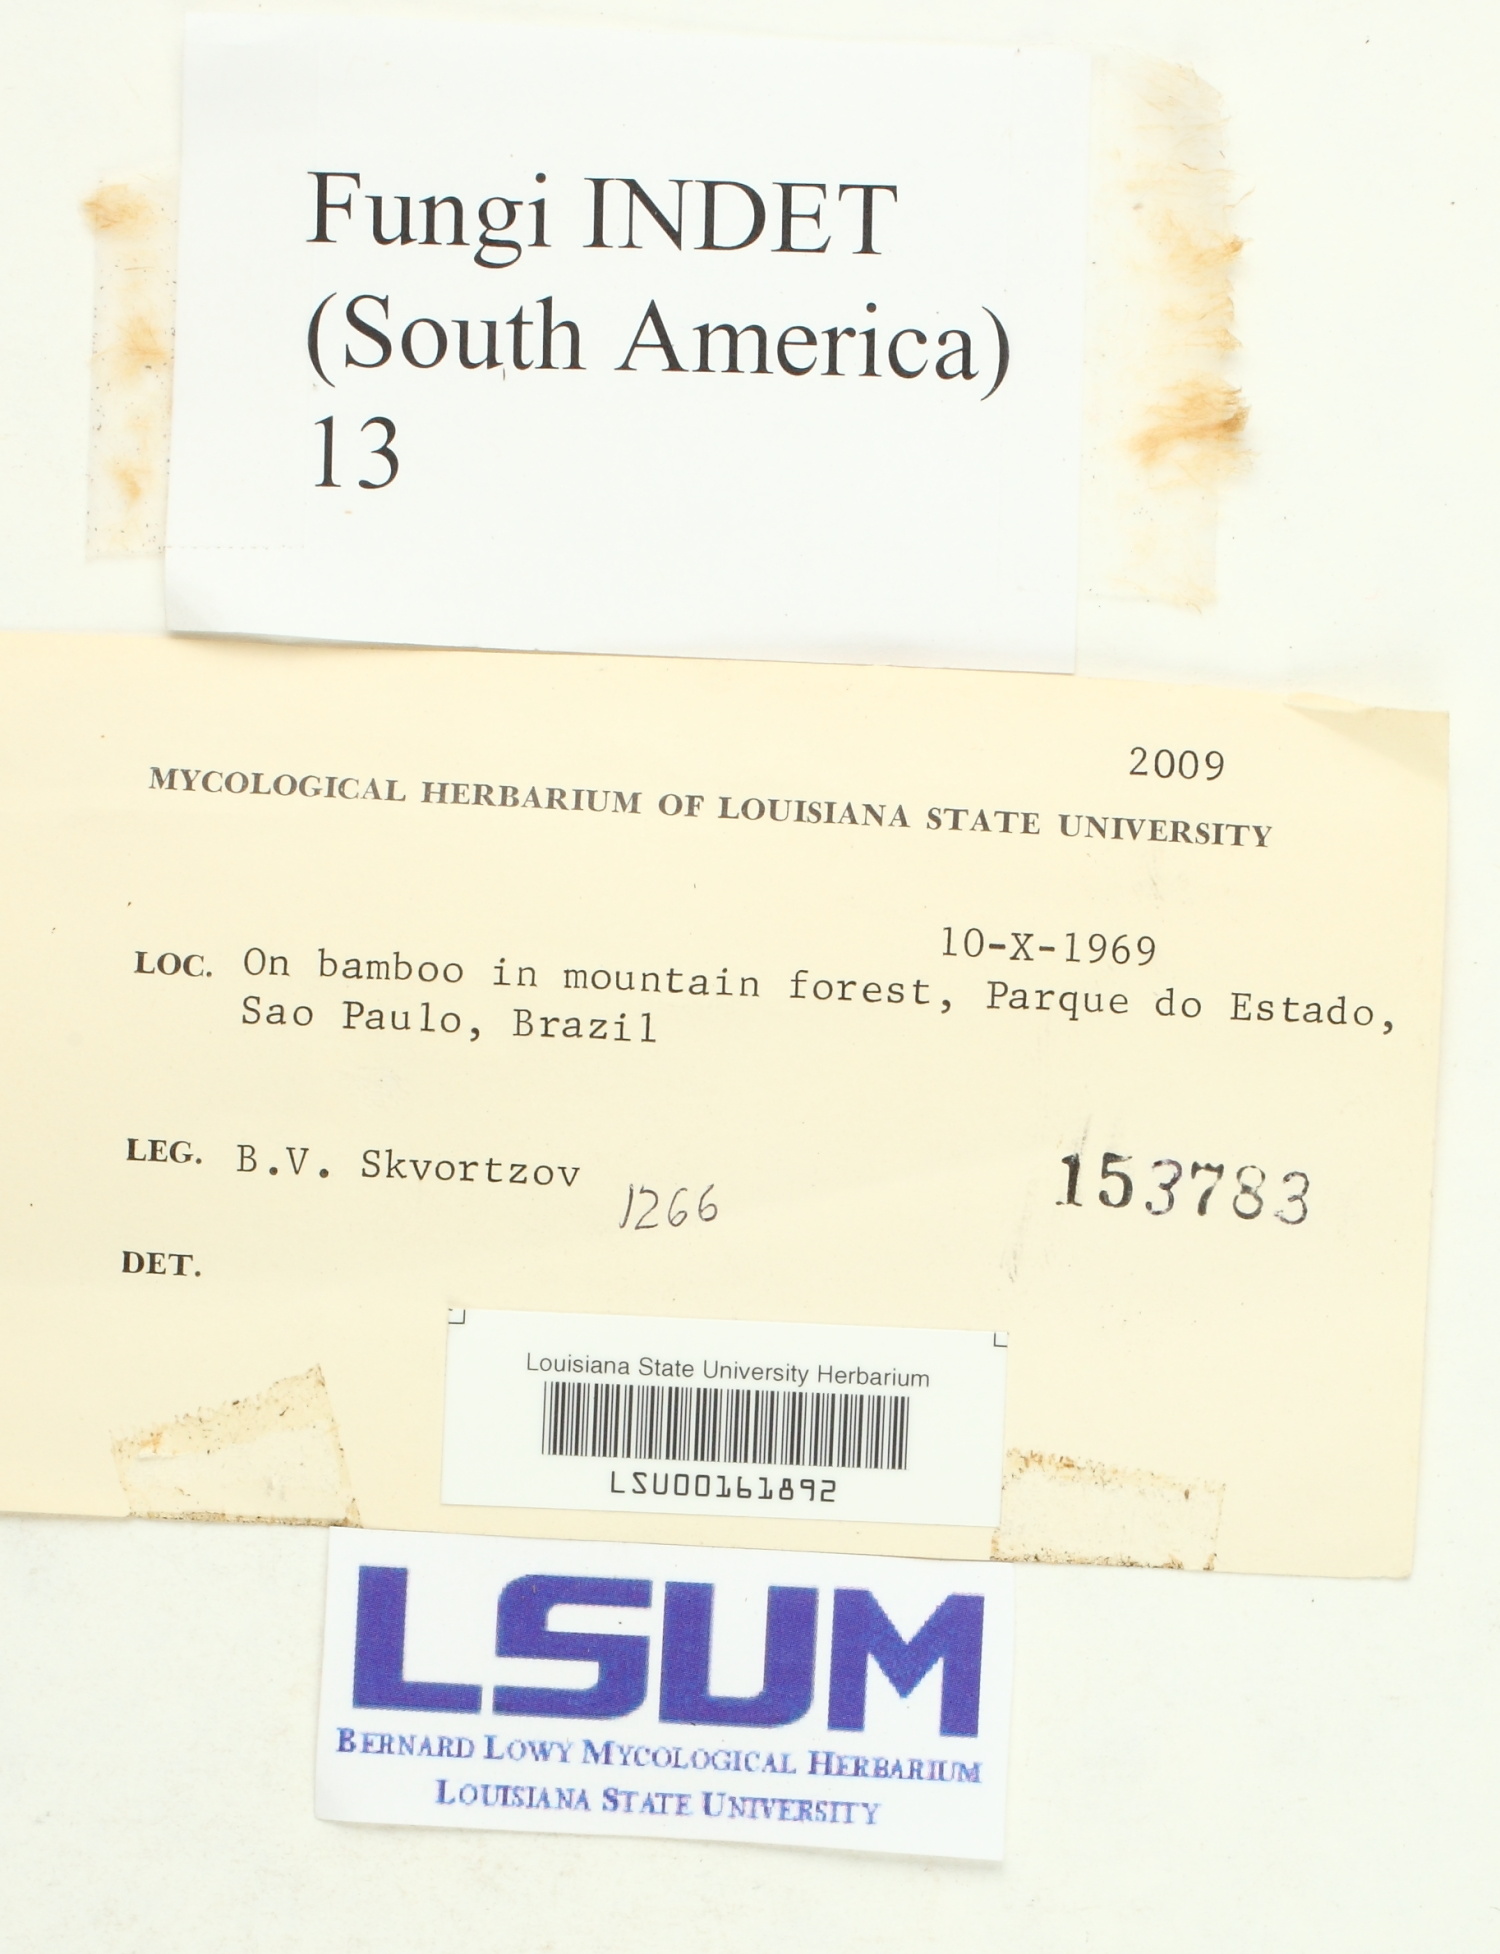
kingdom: Fungi
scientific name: Fungi
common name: Fungi
